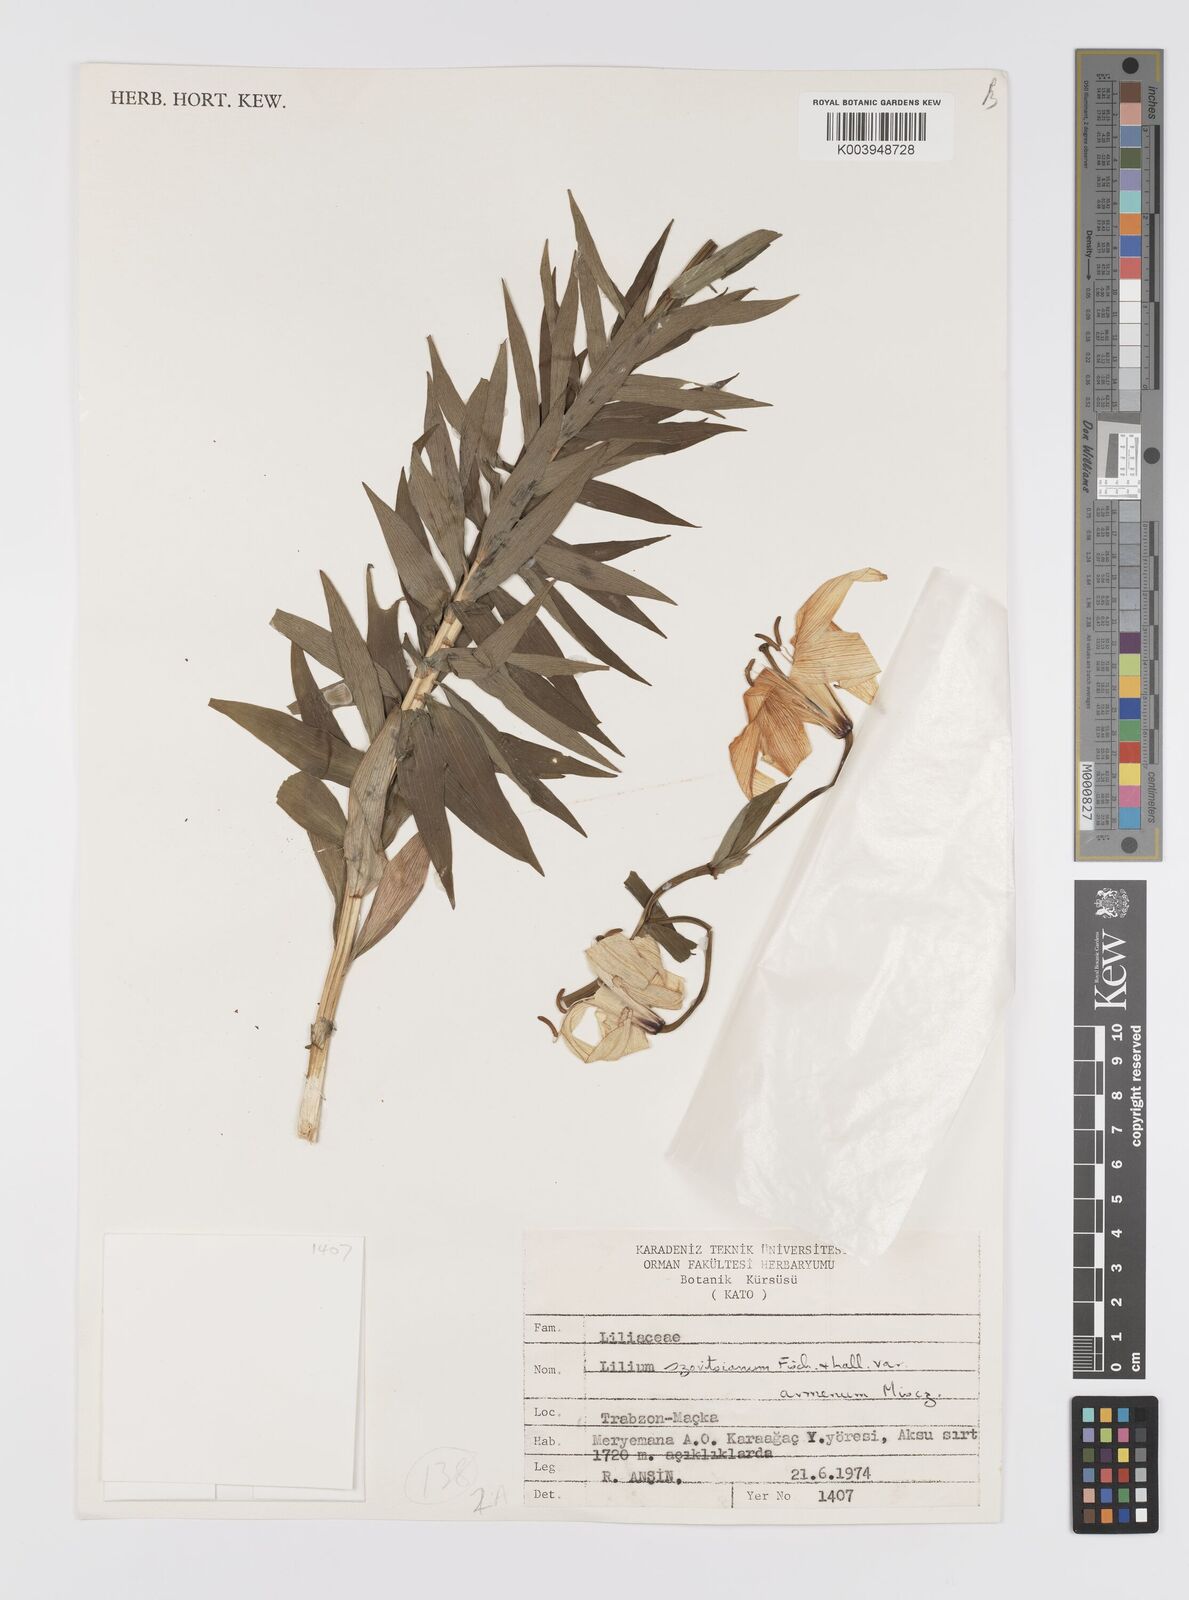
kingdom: Plantae
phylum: Tracheophyta
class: Liliopsida
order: Liliales
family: Liliaceae
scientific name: Liliaceae
